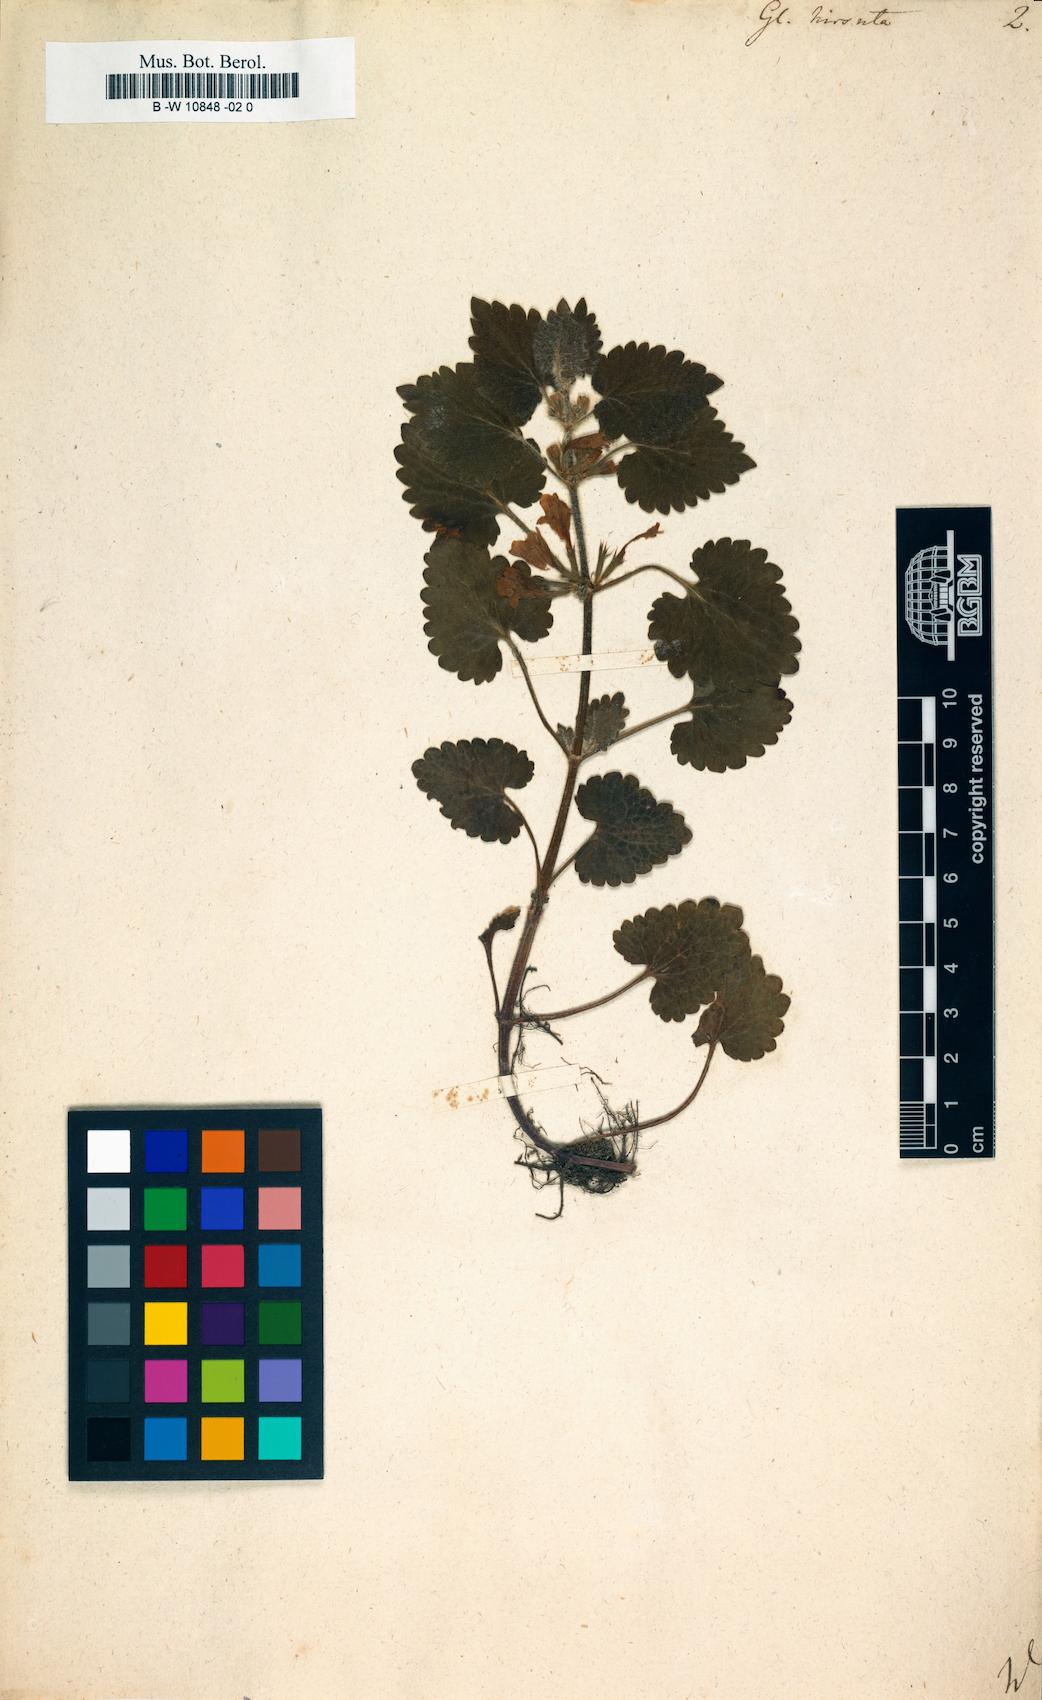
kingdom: Plantae
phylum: Tracheophyta
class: Magnoliopsida
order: Lamiales
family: Lamiaceae
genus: Glechoma
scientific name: Glechoma hirsuta
